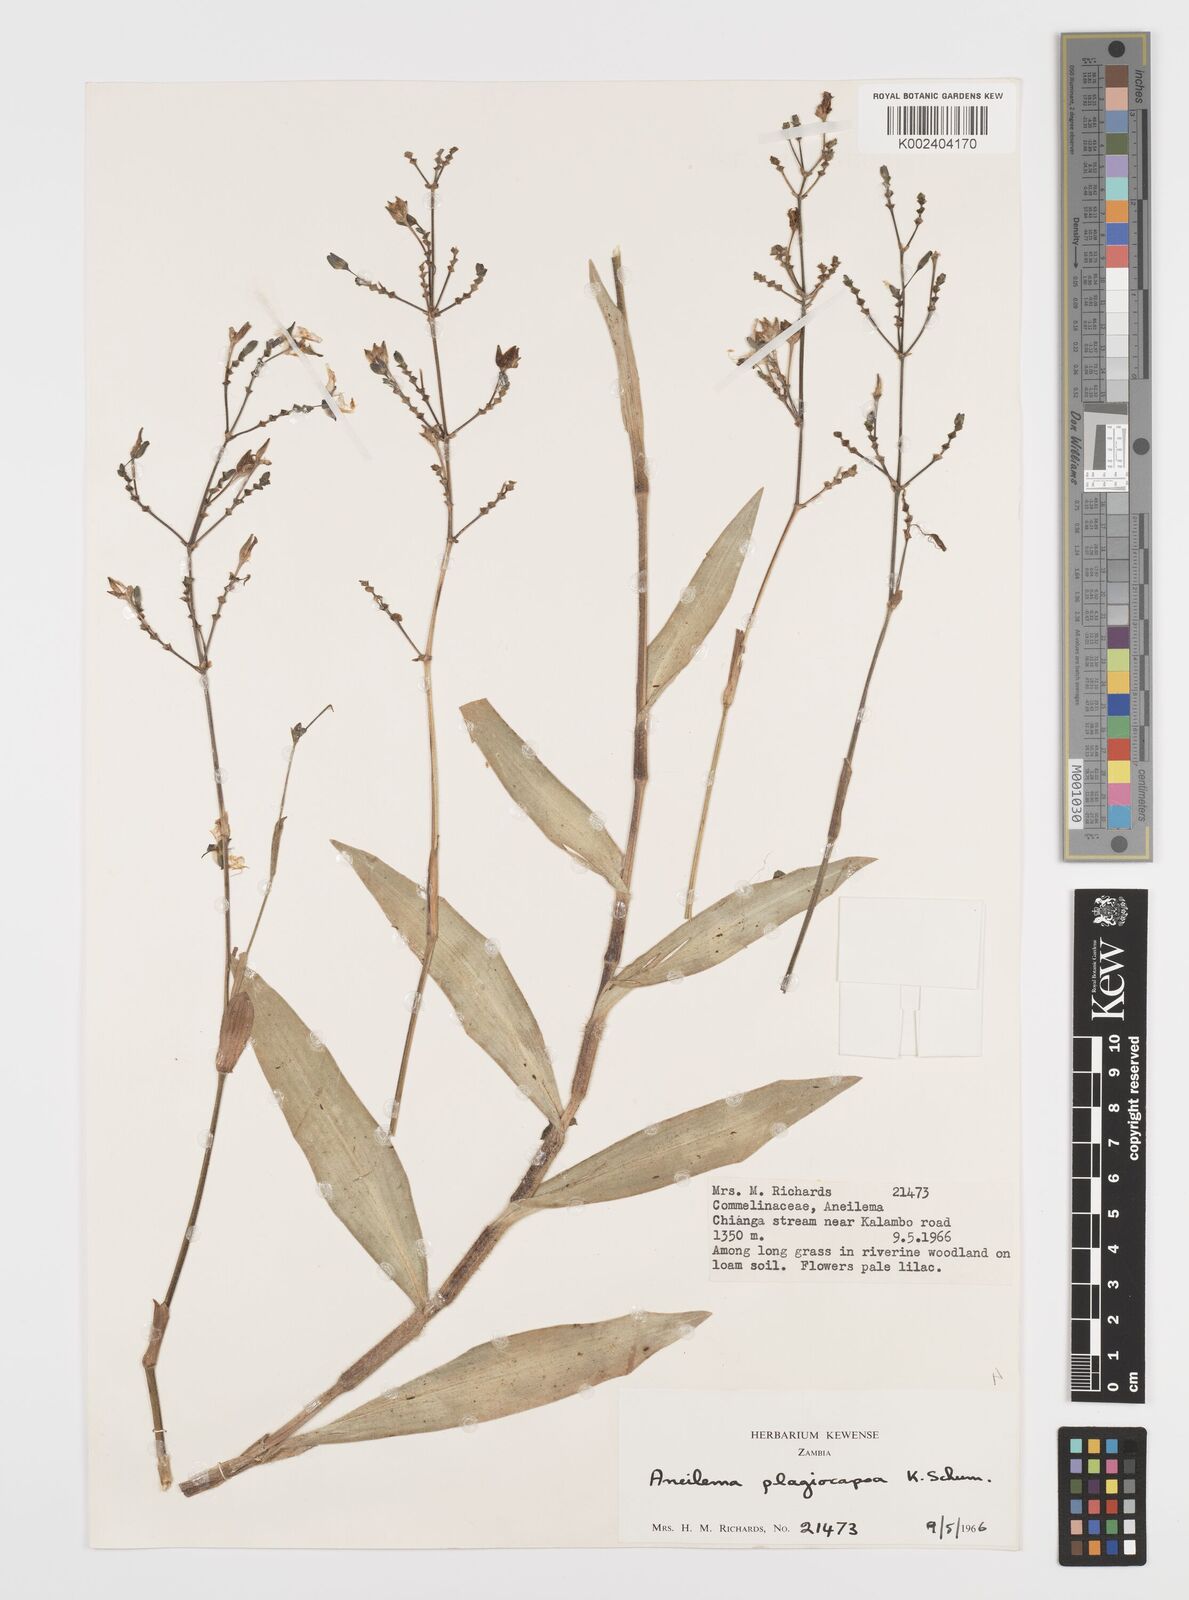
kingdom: Plantae
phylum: Tracheophyta
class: Liliopsida
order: Commelinales
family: Commelinaceae
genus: Aneilema
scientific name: Aneilema plagiocapsa
